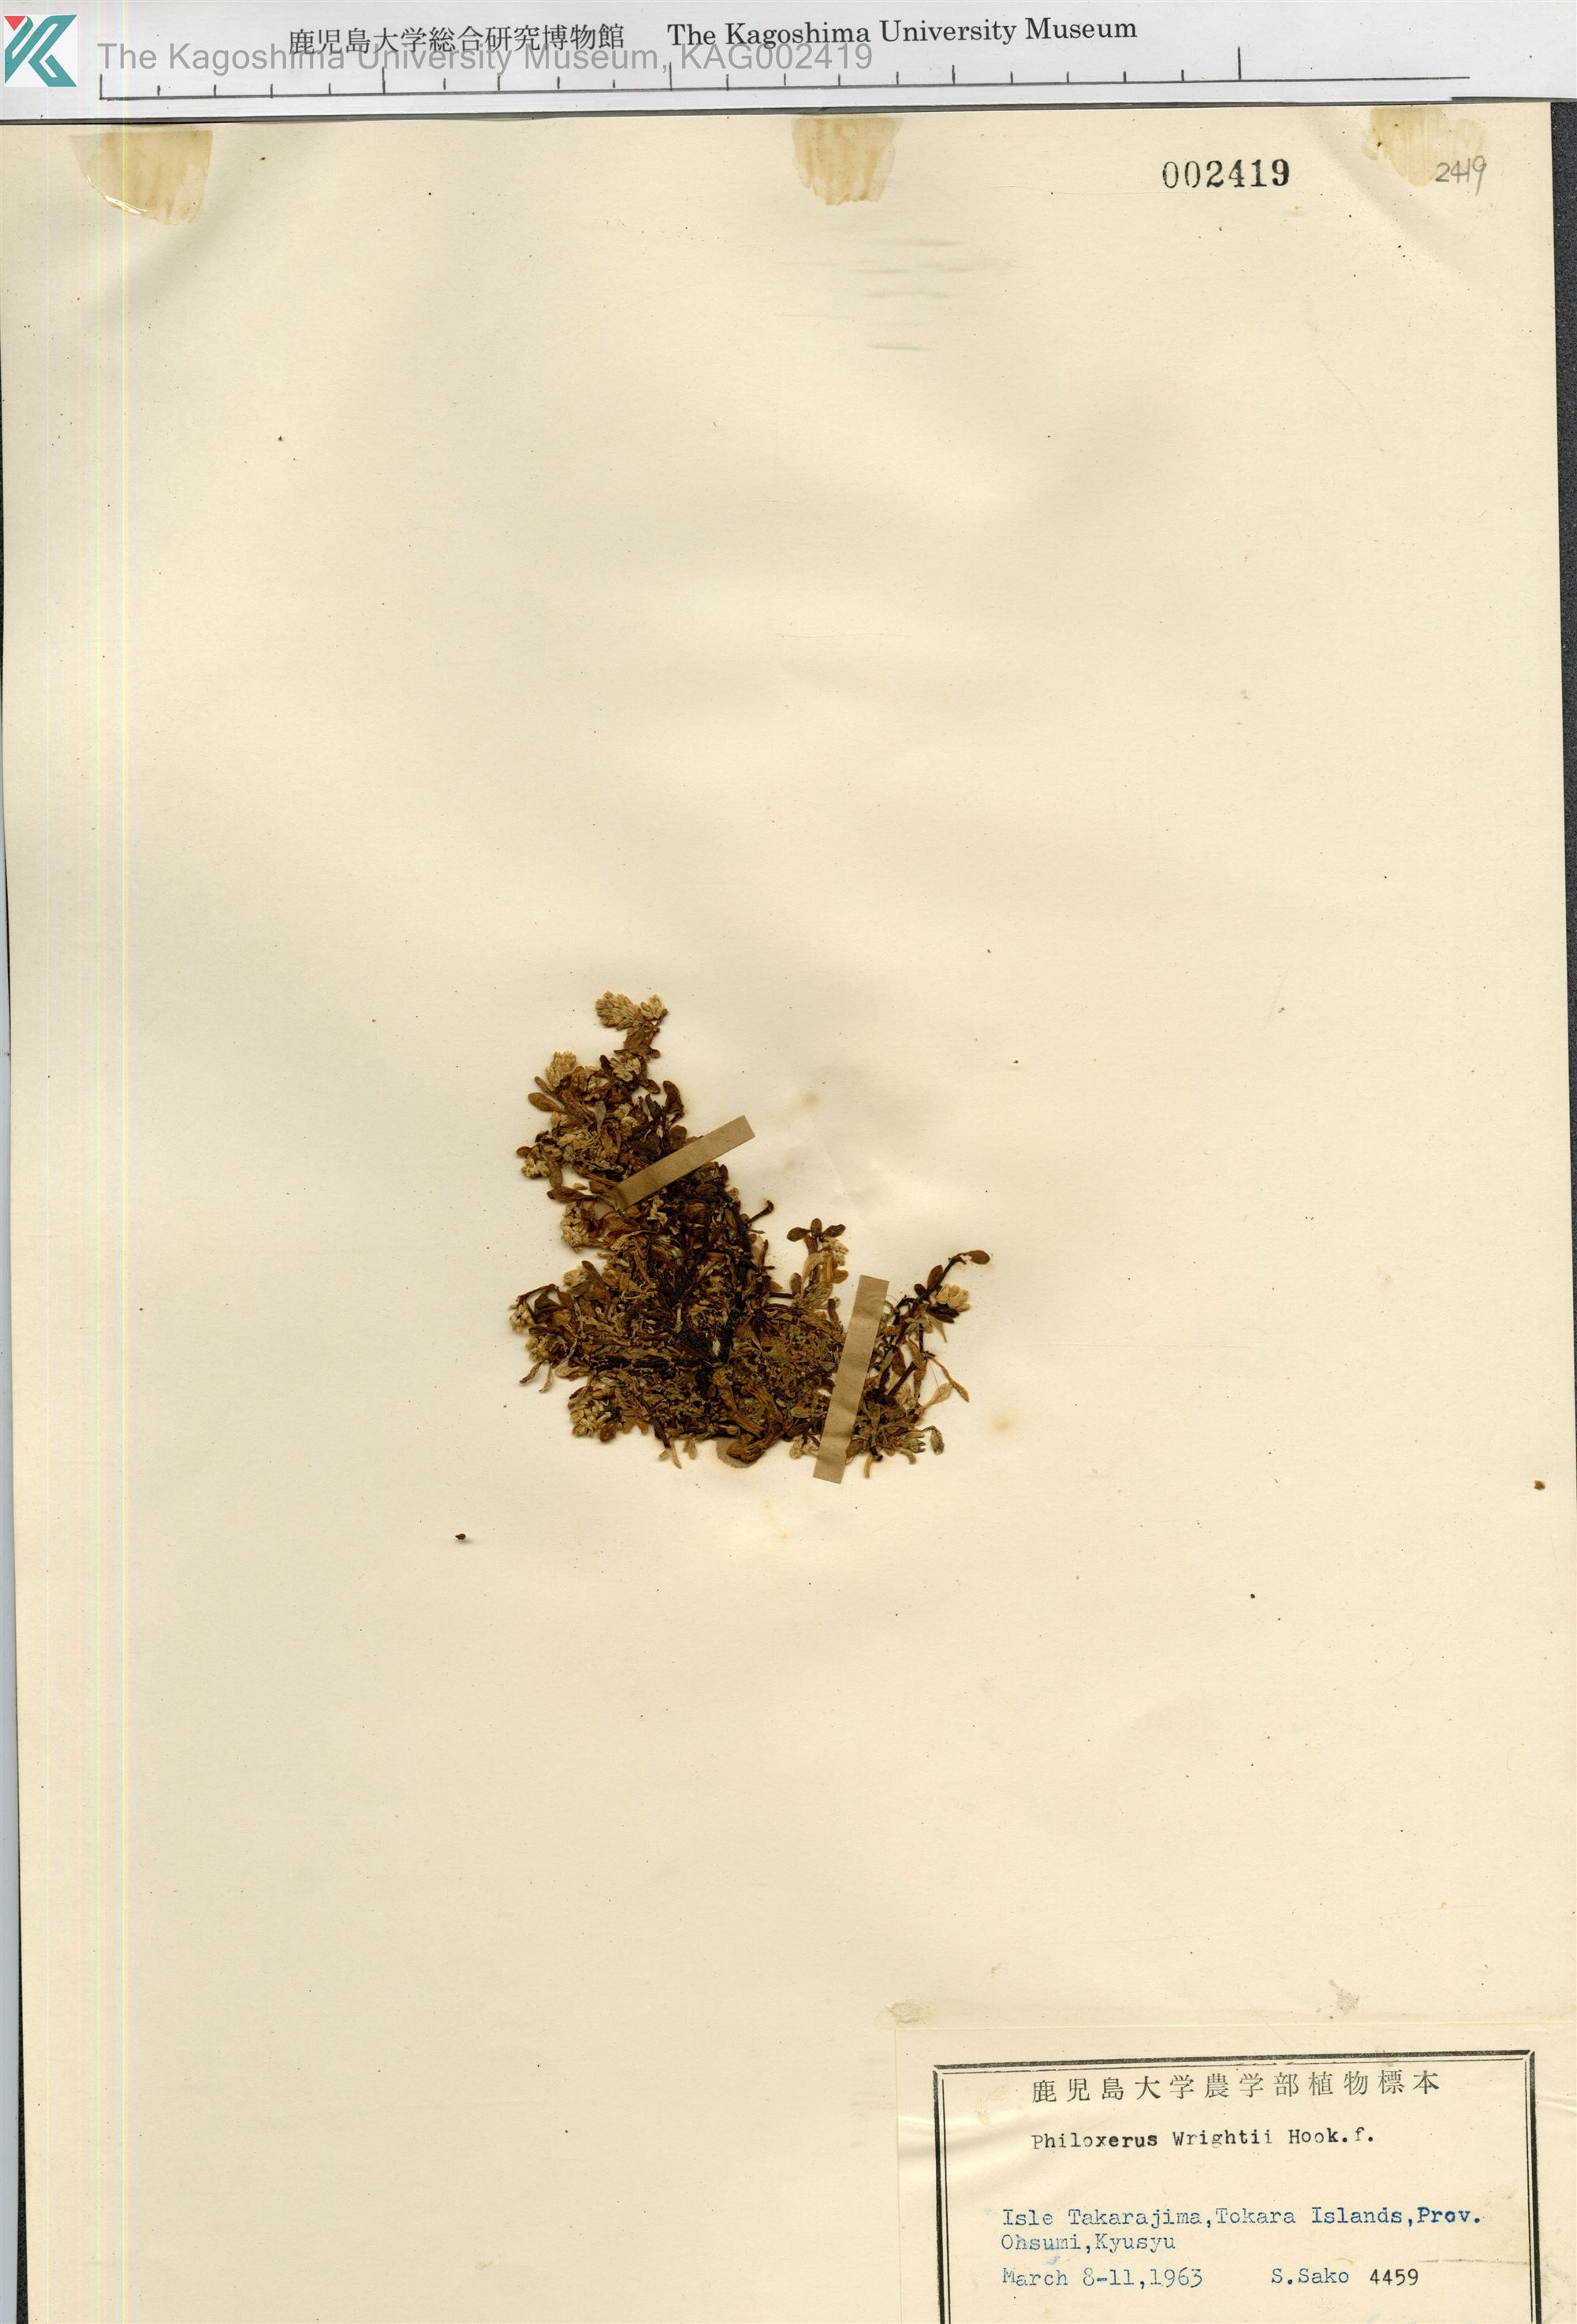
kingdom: Plantae
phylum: Tracheophyta
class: Magnoliopsida
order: Caryophyllales
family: Amaranthaceae
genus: Gomphrena
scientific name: Gomphrena wrightii
